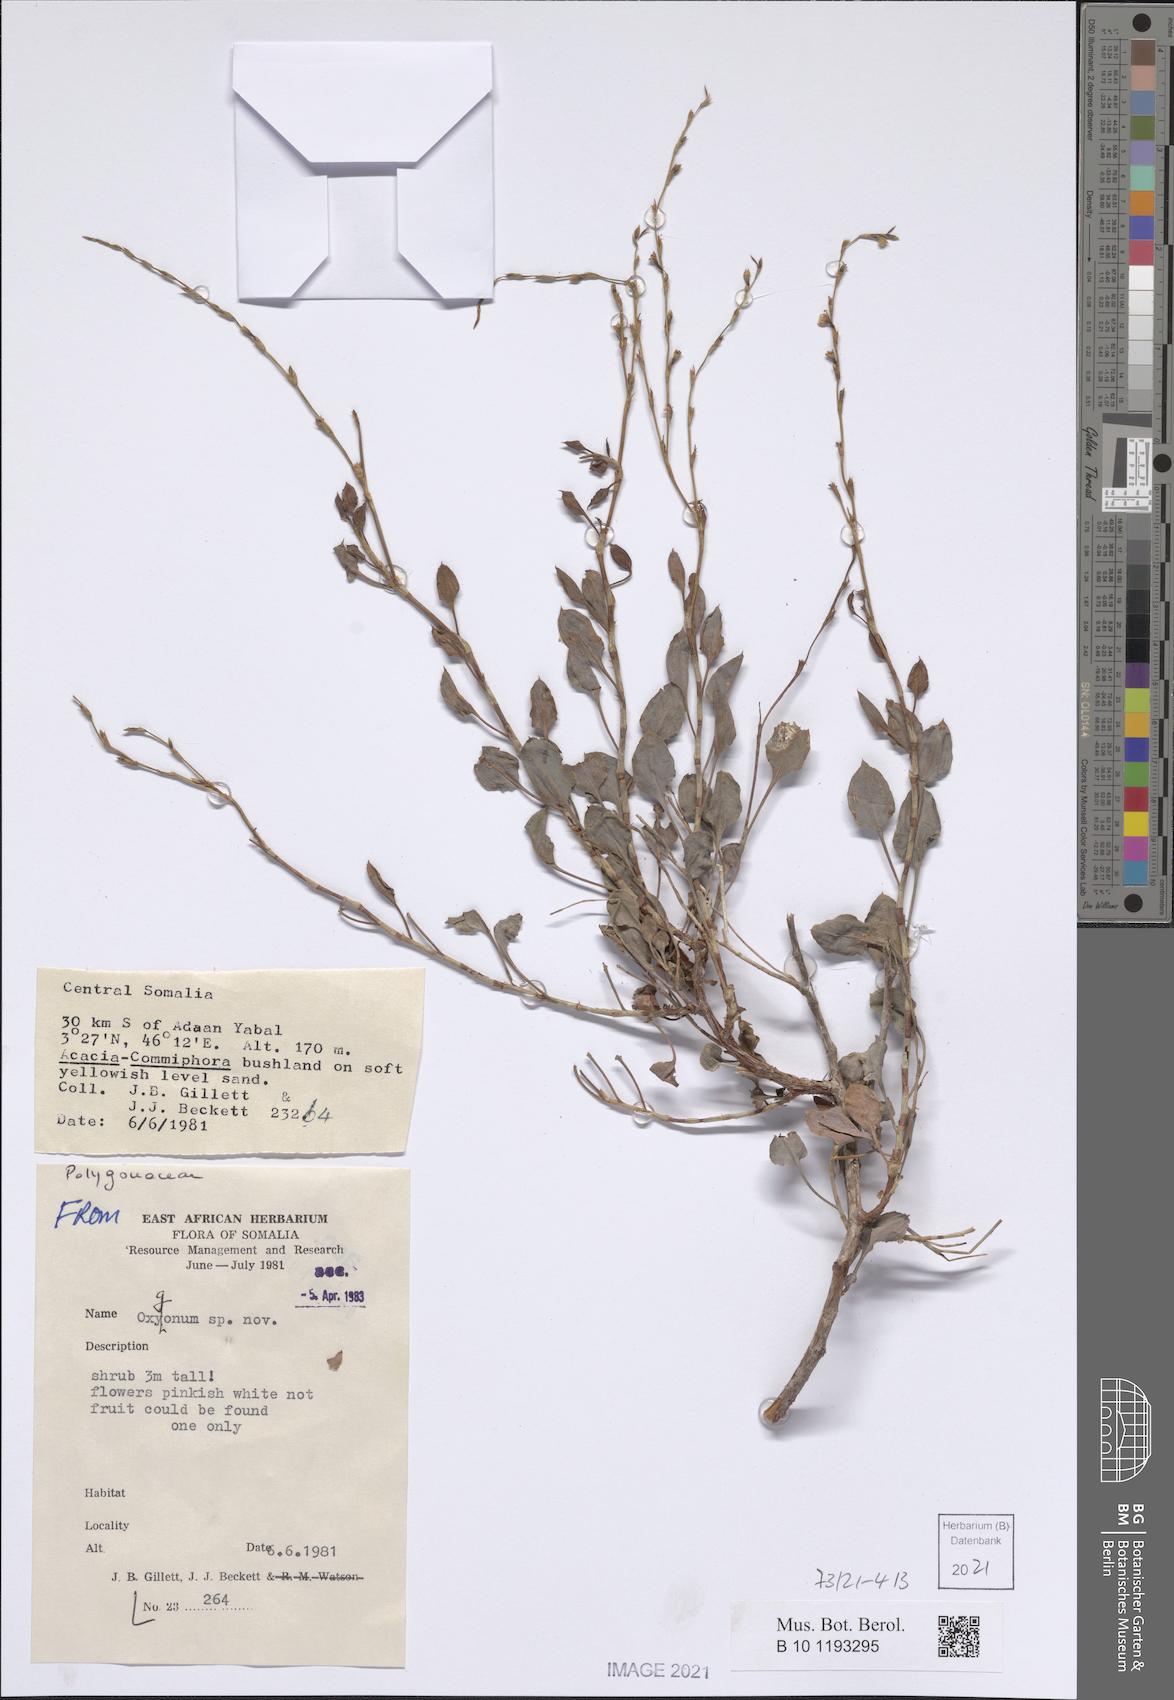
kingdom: Plantae
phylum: Tracheophyta
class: Magnoliopsida
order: Caryophyllales
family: Polygonaceae
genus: Oxygonum
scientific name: Oxygonum
